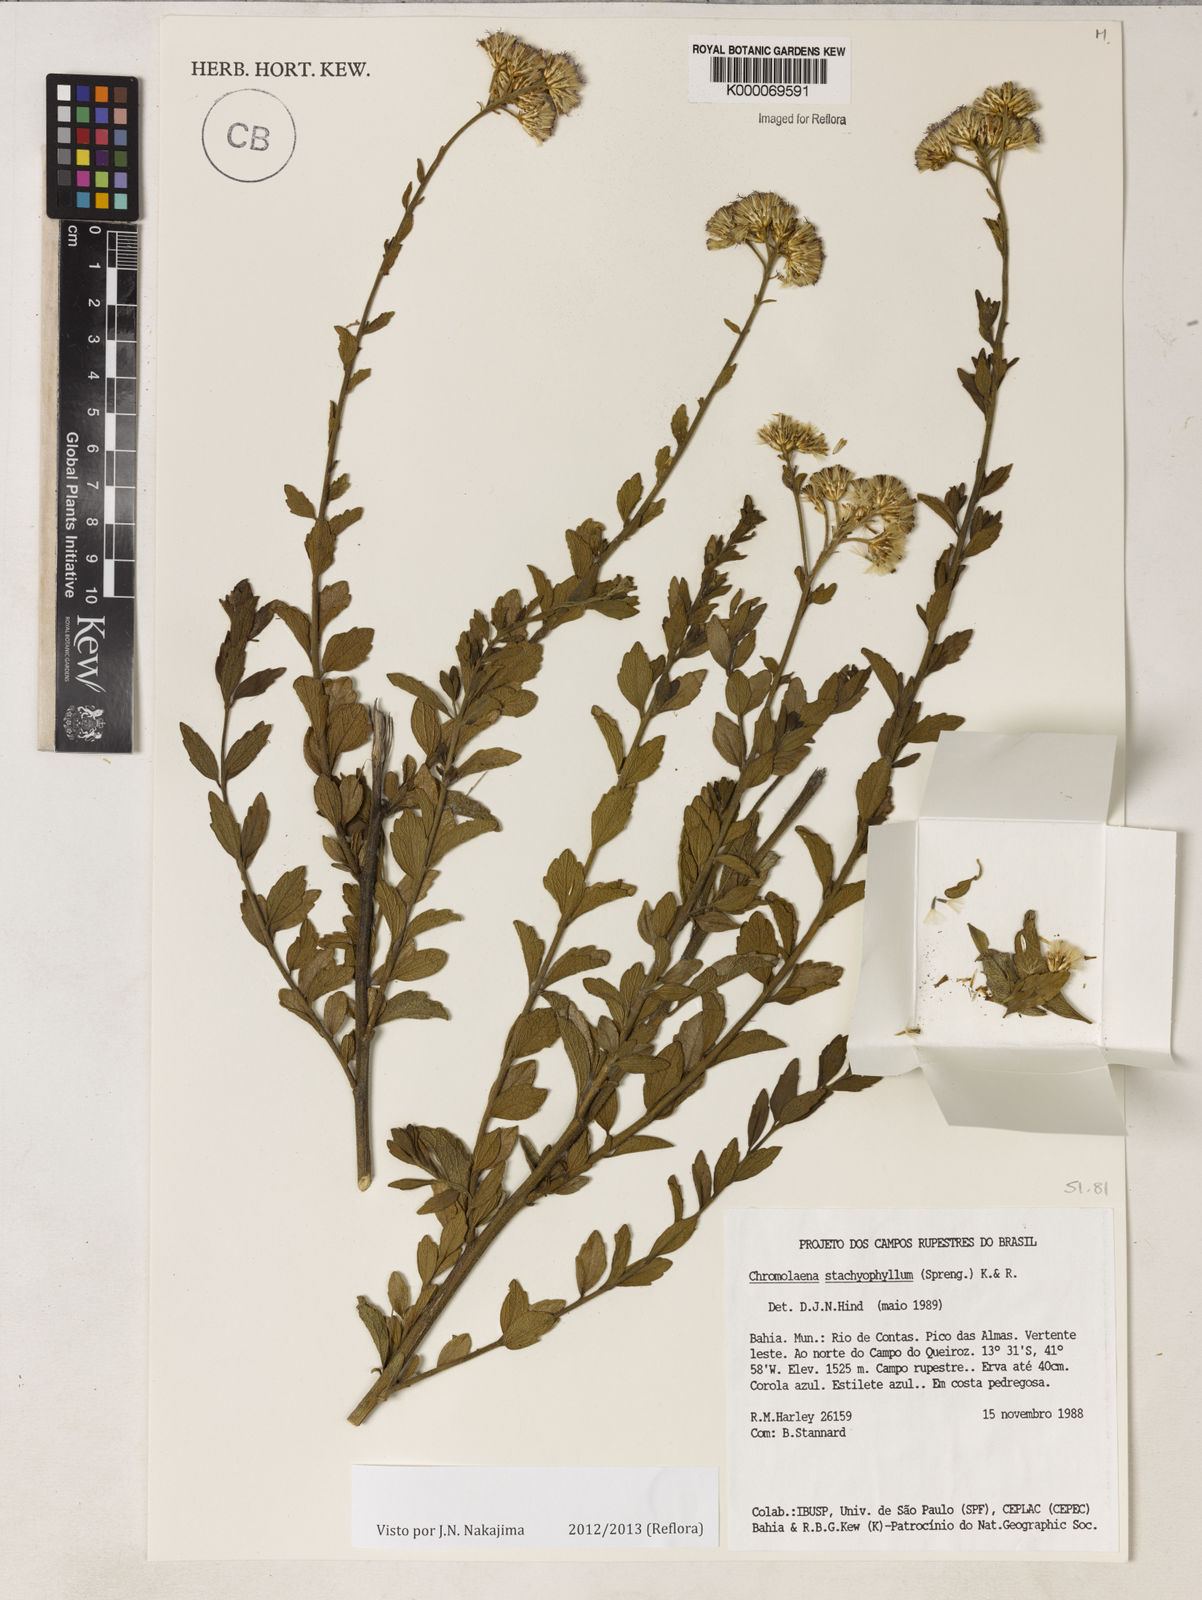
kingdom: Plantae
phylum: Tracheophyta
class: Magnoliopsida
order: Asterales
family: Asteraceae
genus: Chromolaena
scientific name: Chromolaena stachyophylla
